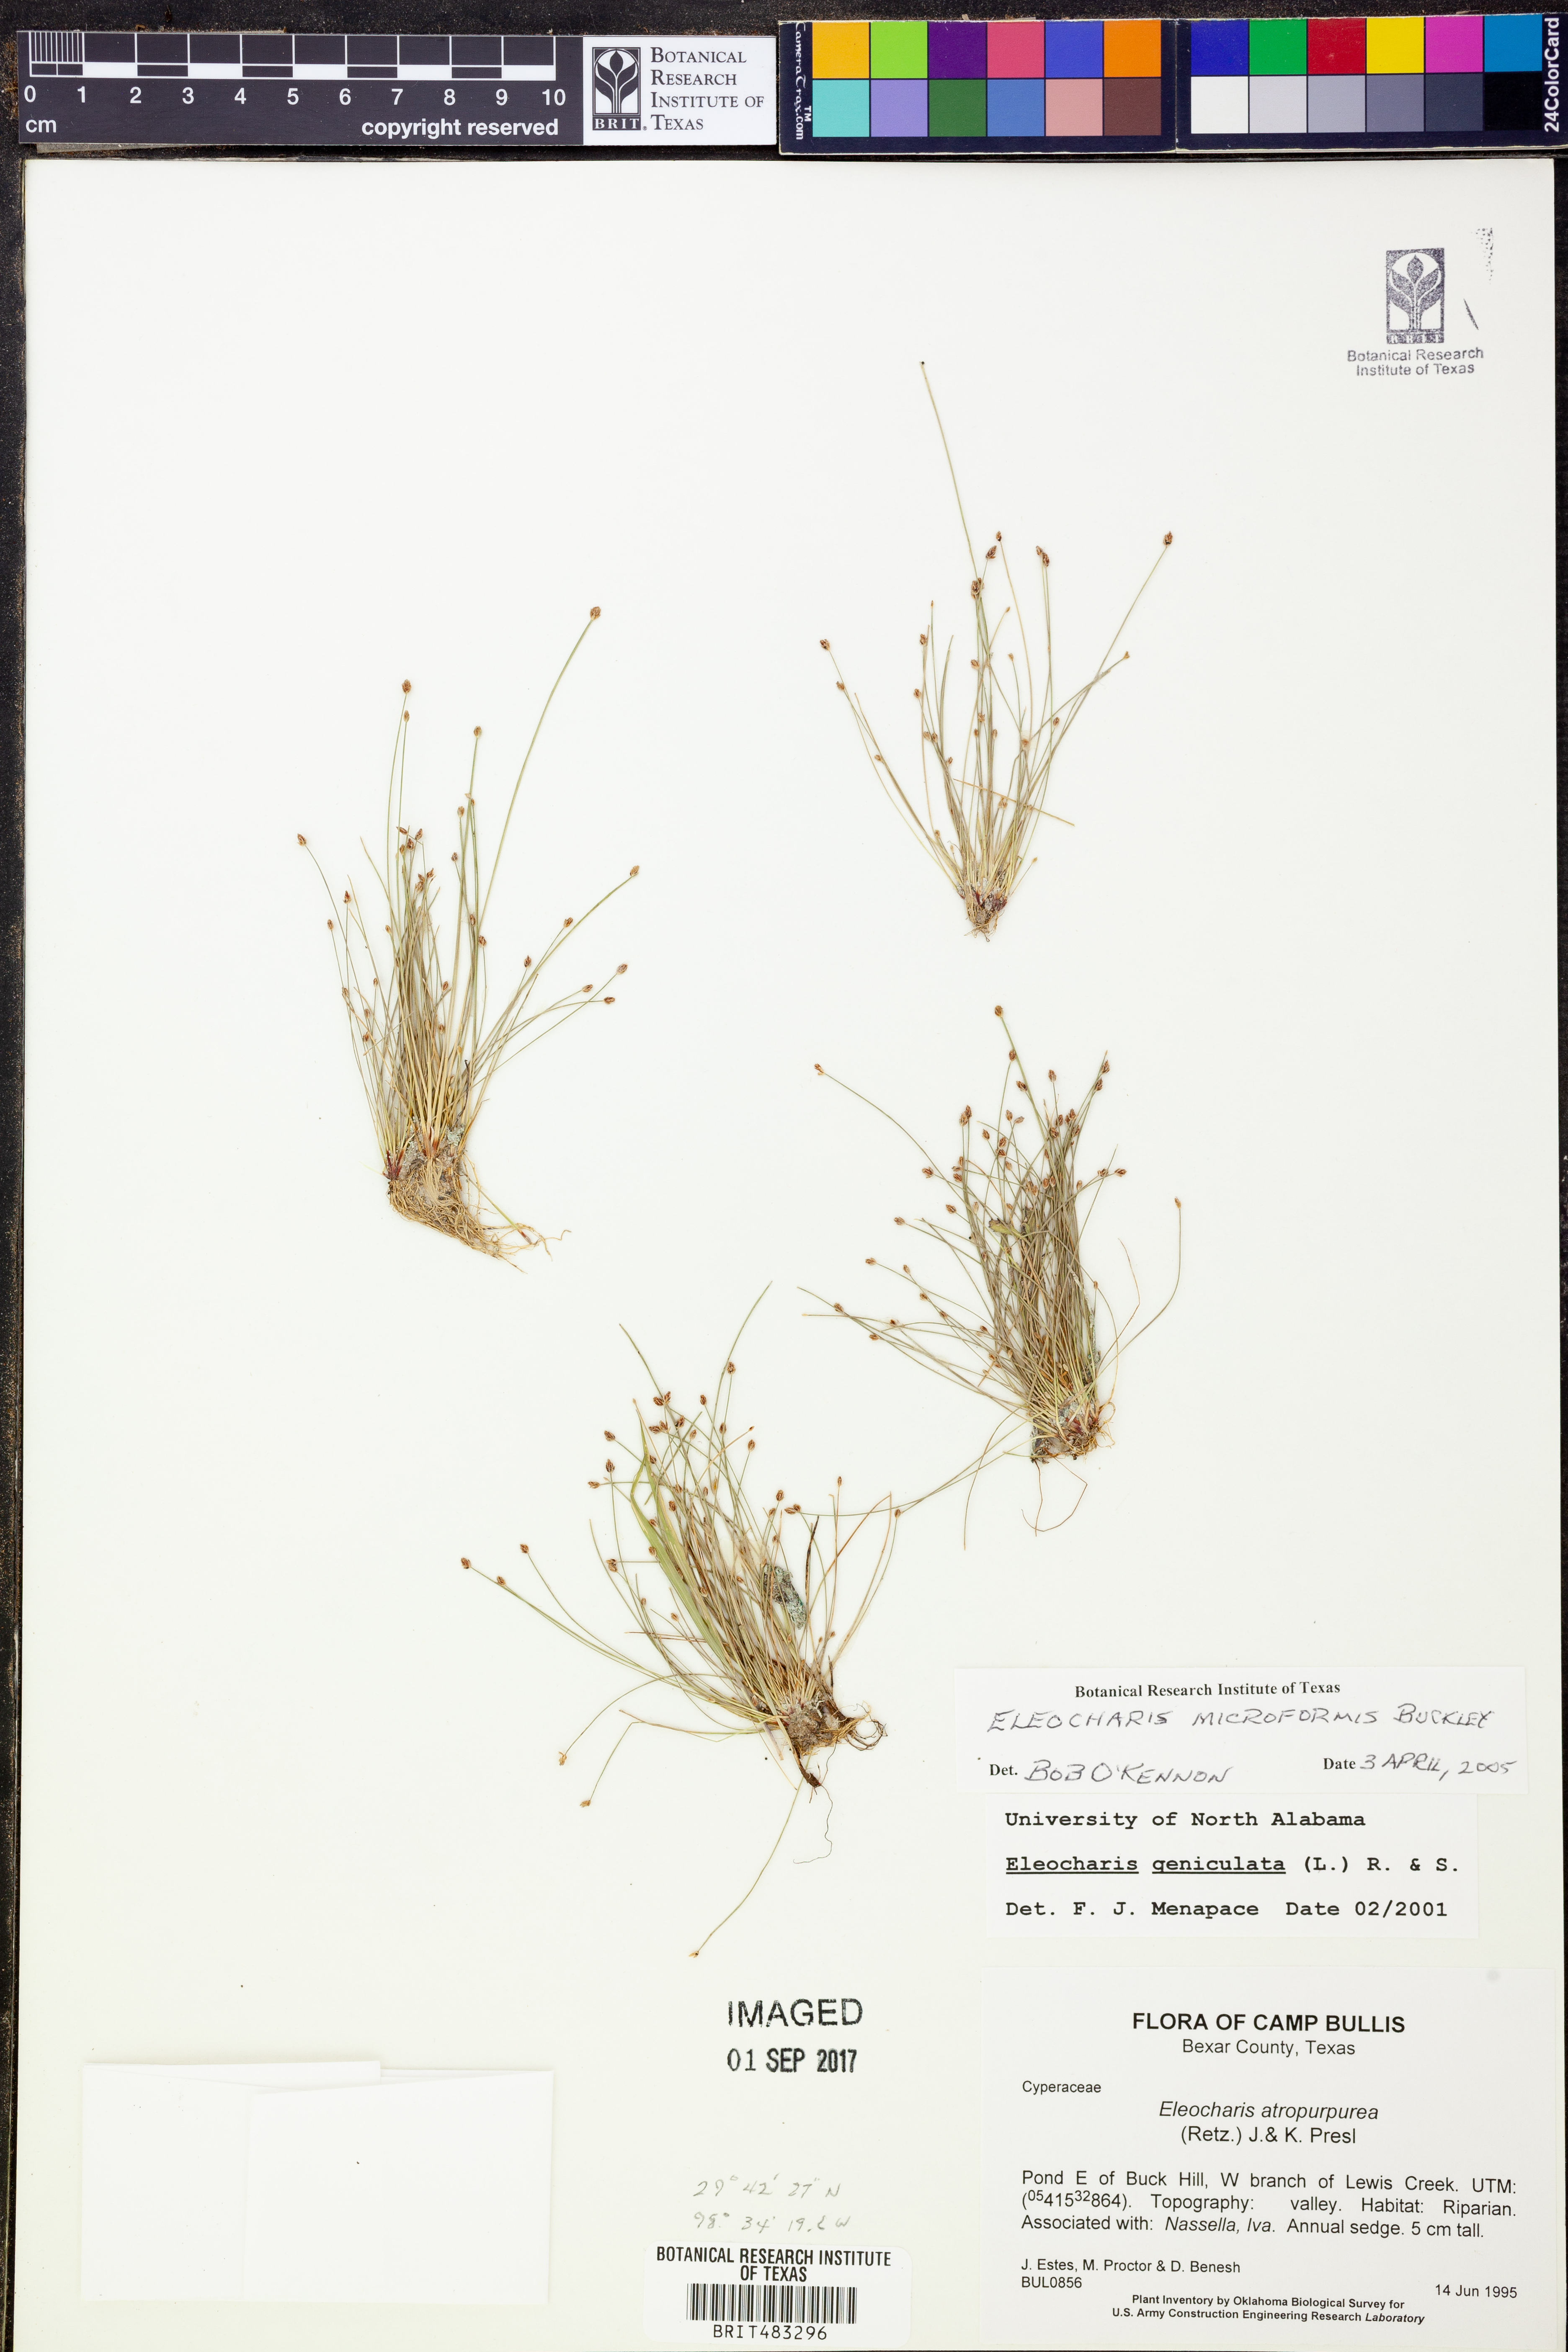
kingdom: Plantae
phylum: Tracheophyta
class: Liliopsida
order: Poales
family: Cyperaceae
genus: Eleocharis
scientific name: Eleocharis microformis
